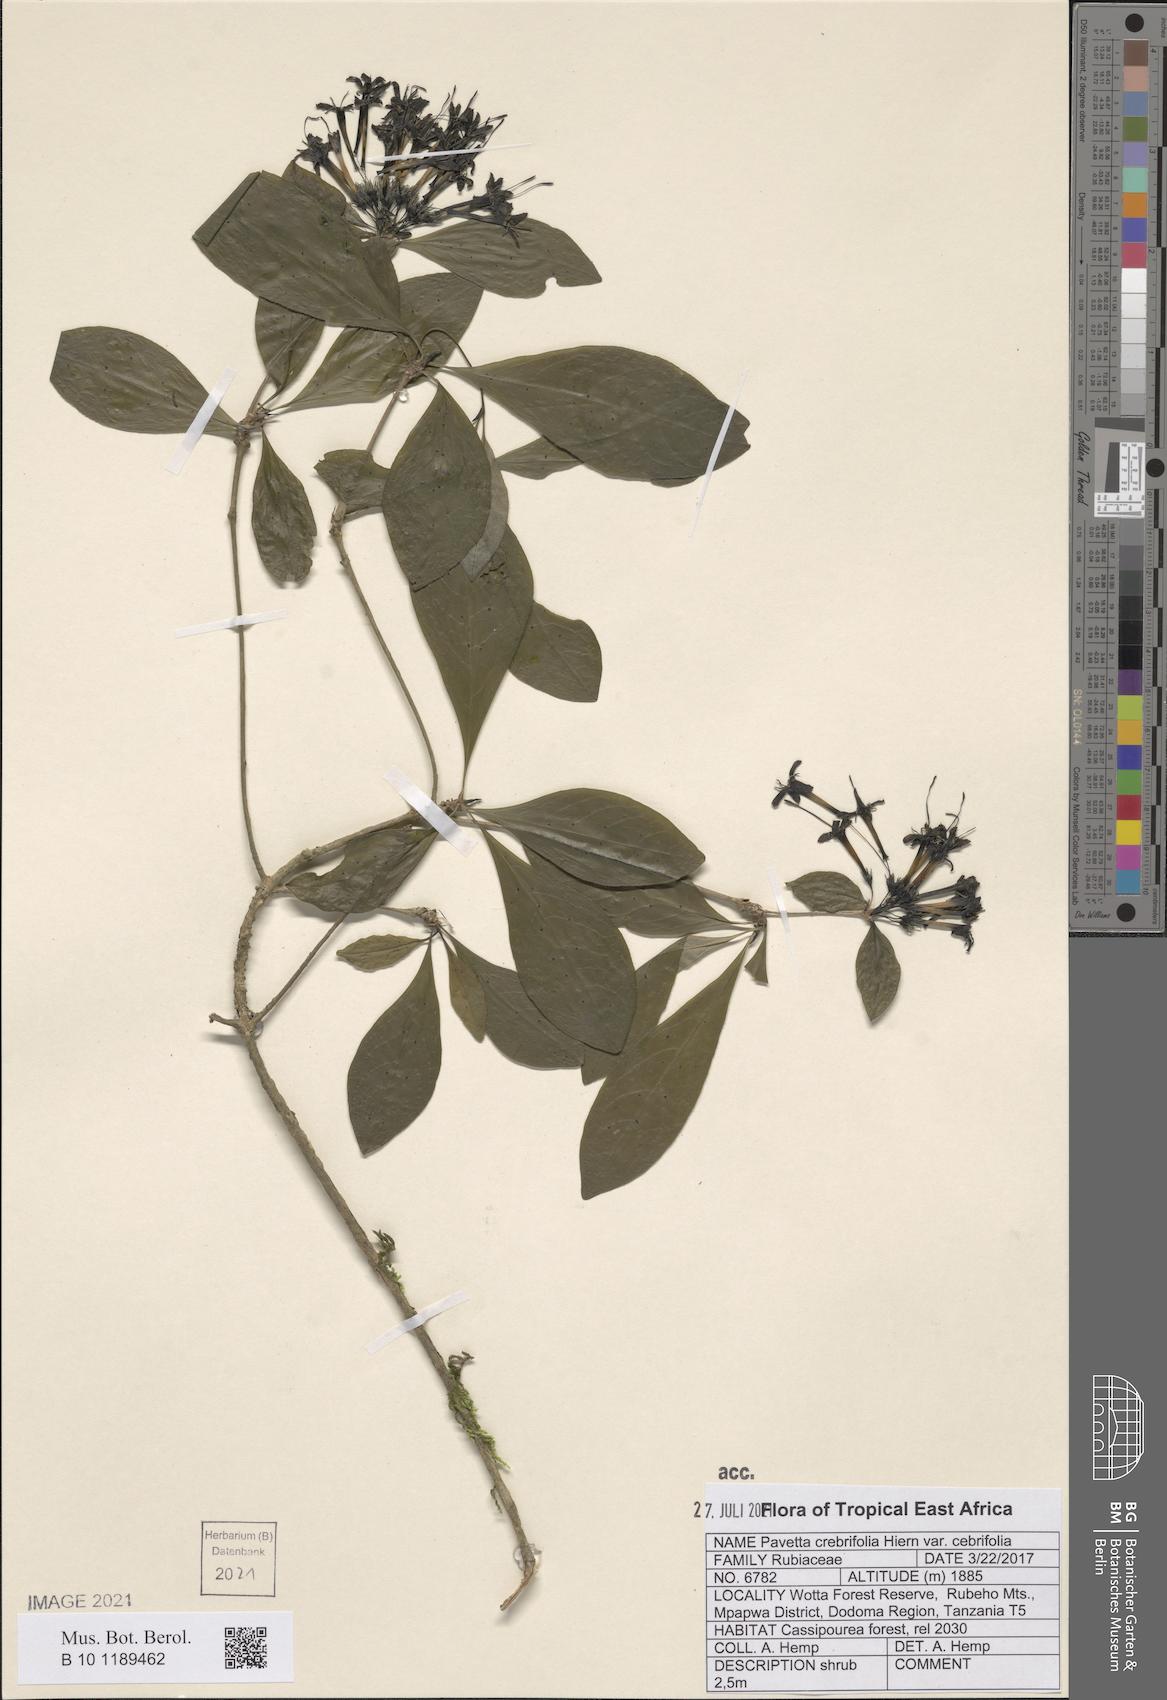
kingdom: Plantae
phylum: Tracheophyta
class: Magnoliopsida
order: Gentianales
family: Rubiaceae
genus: Pavetta
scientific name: Pavetta crebrifolia
